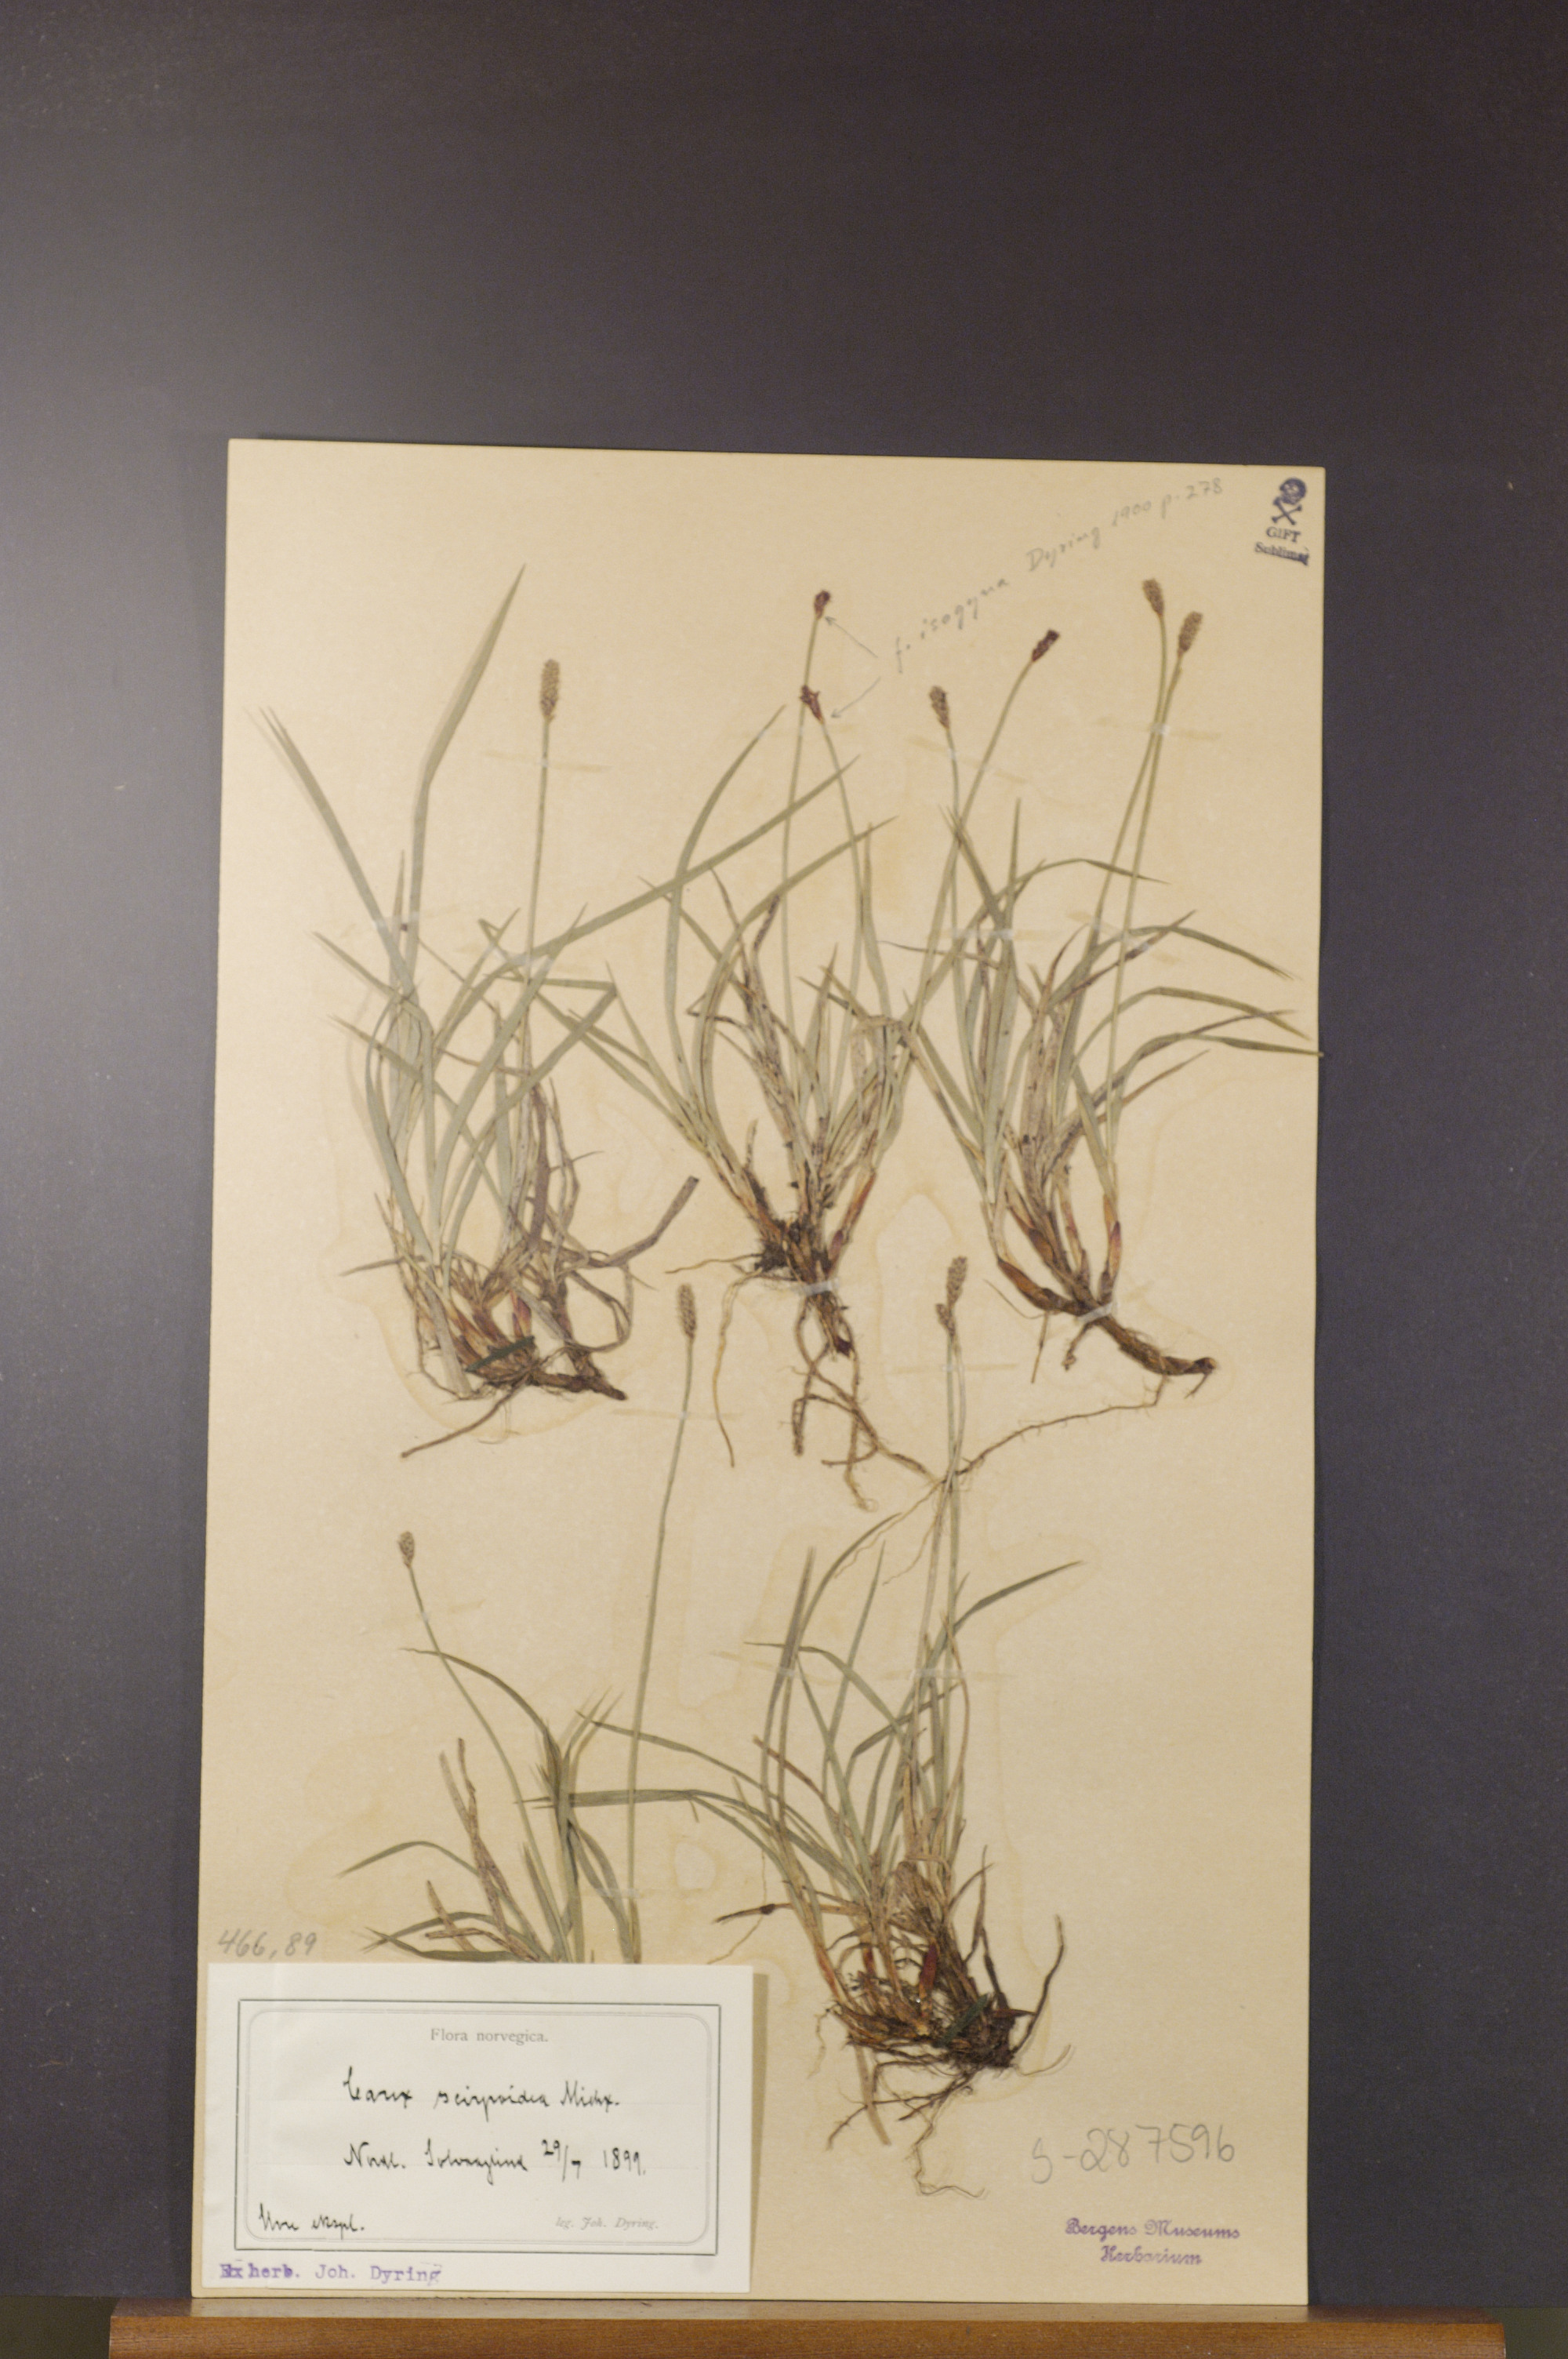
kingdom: Plantae
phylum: Tracheophyta
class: Liliopsida
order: Poales
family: Cyperaceae
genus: Carex
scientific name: Carex scirpoidea
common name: Canada single-spike sedge
